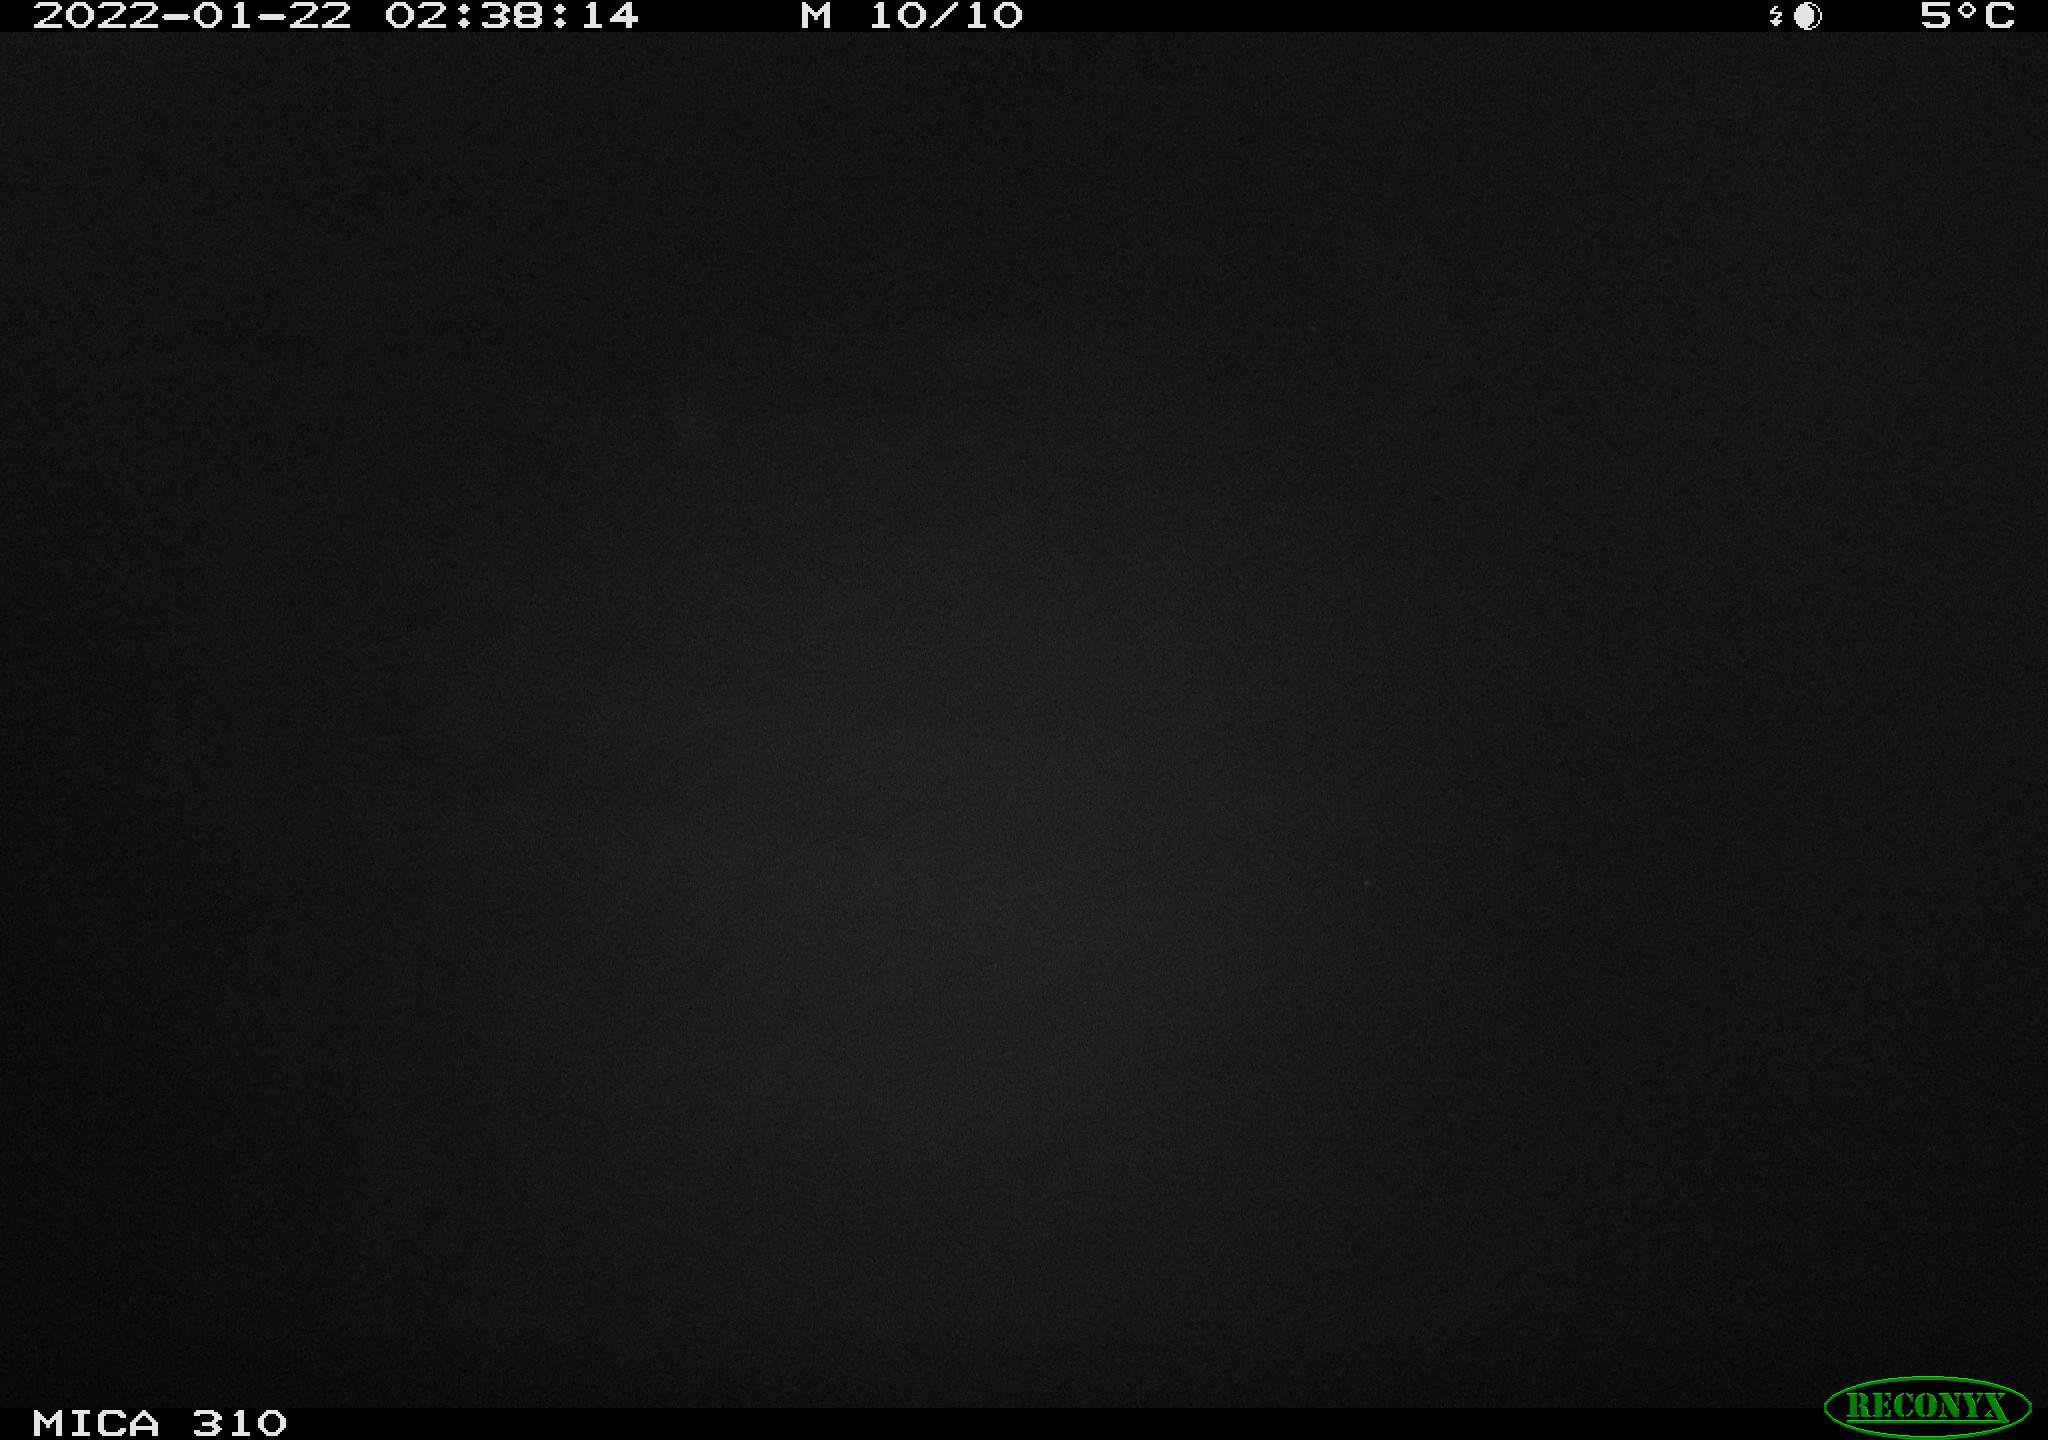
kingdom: Animalia
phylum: Chordata
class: Mammalia
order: Rodentia
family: Cricetidae
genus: Ondatra
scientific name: Ondatra zibethicus
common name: Muskrat
